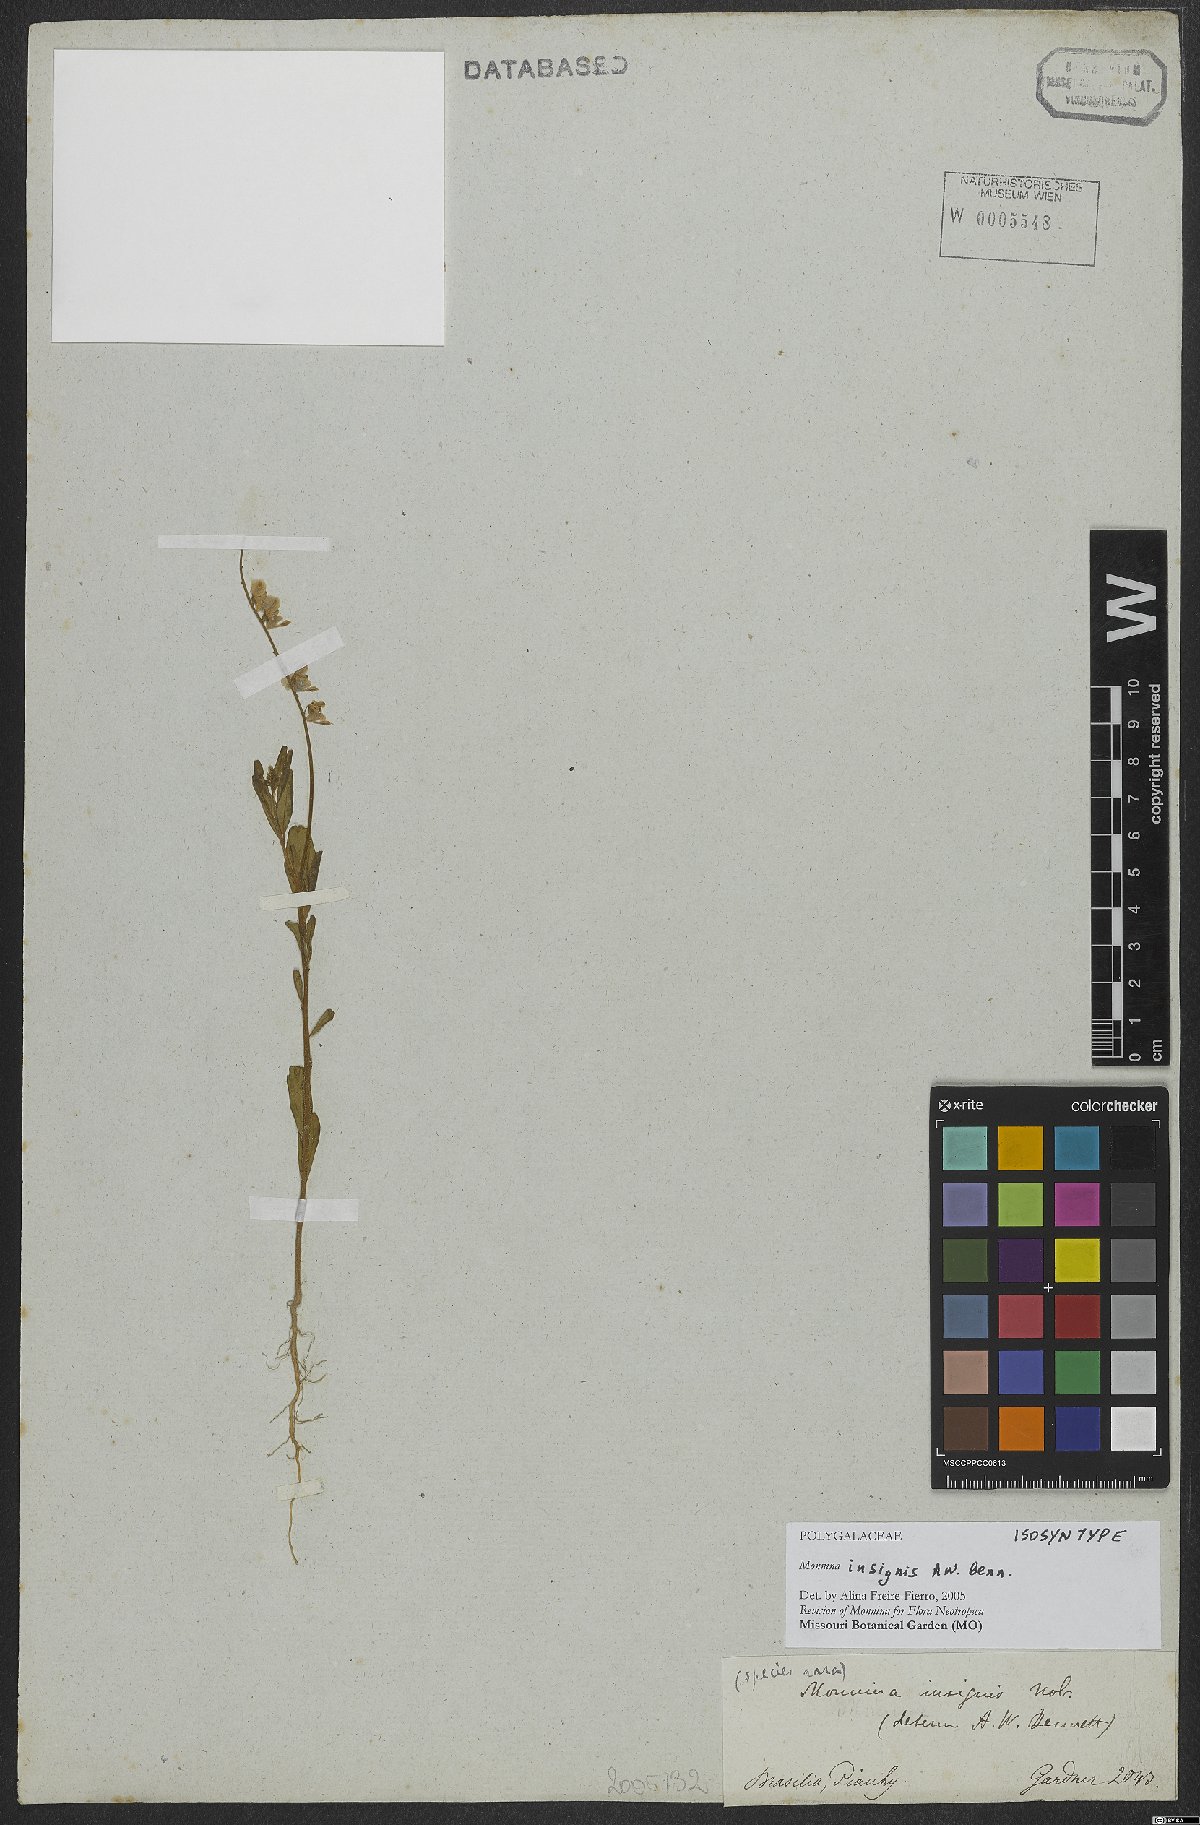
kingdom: Plantae
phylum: Tracheophyta
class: Magnoliopsida
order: Fabales
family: Polygalaceae
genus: Ancylotropis
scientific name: Ancylotropis insignis
